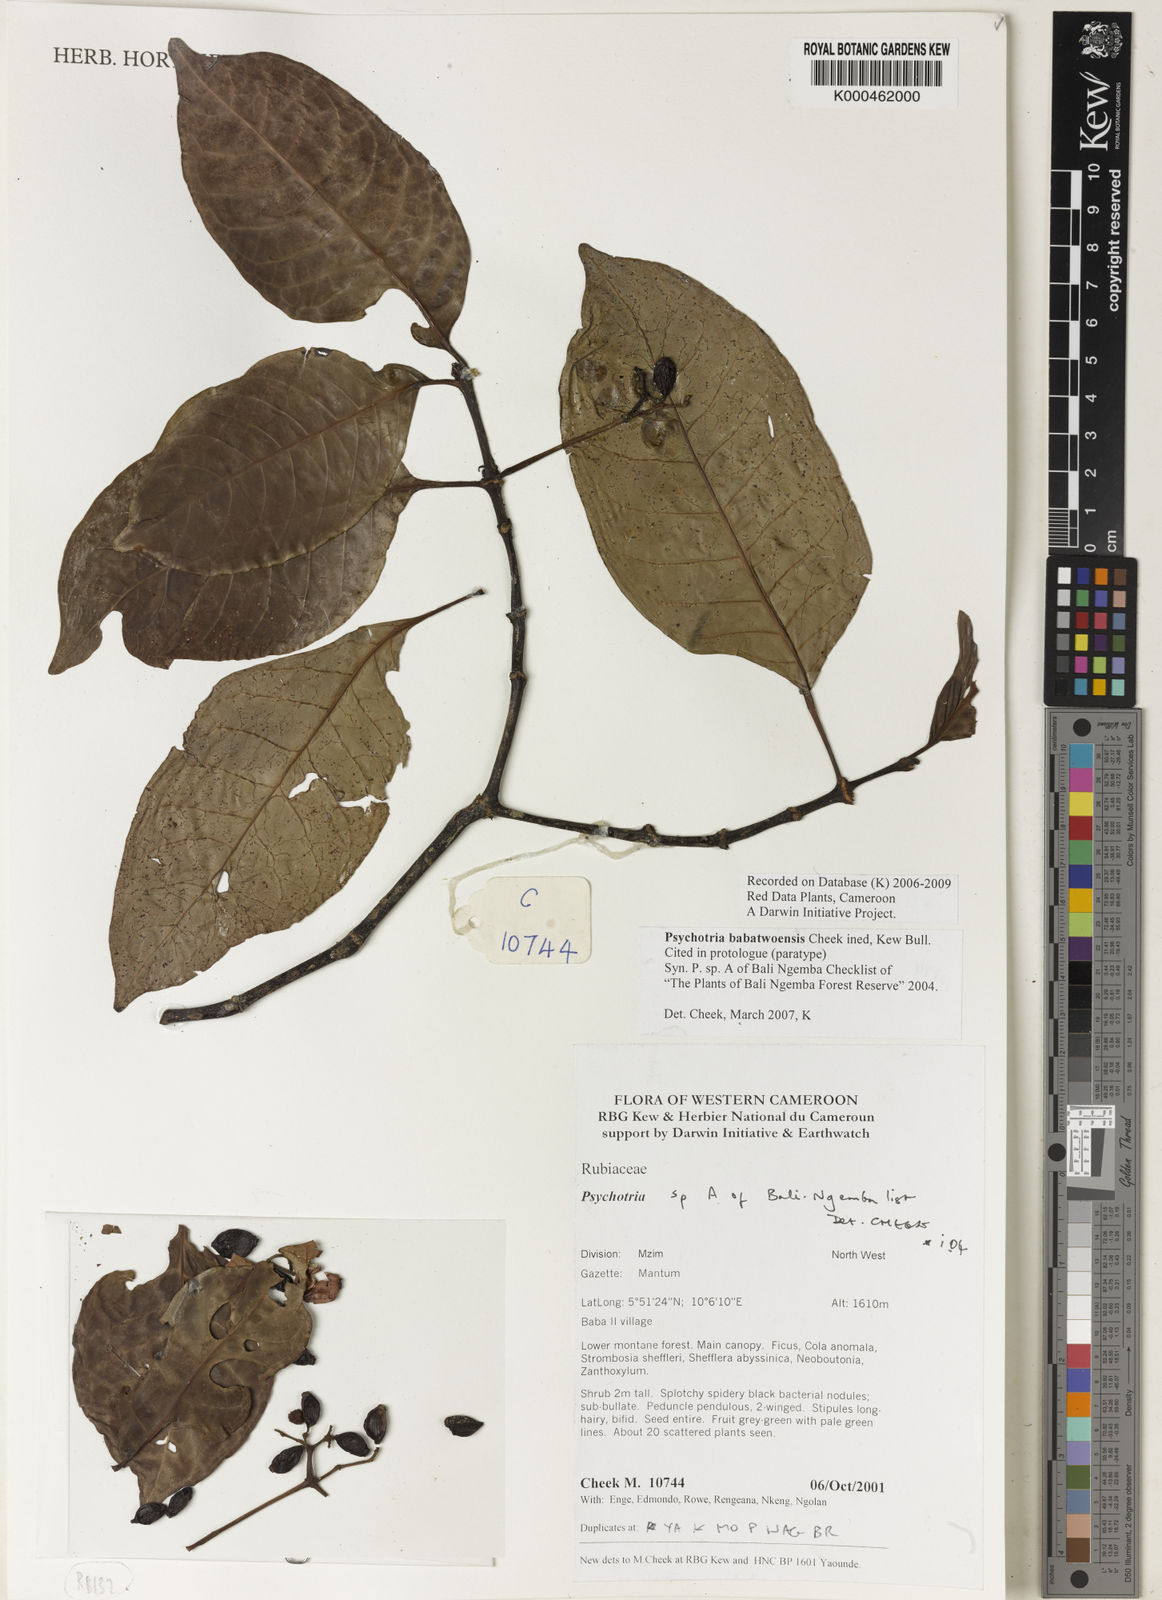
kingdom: Plantae
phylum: Tracheophyta
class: Magnoliopsida
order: Gentianales
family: Rubiaceae
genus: Psychotria
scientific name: Psychotria babatwoensis
